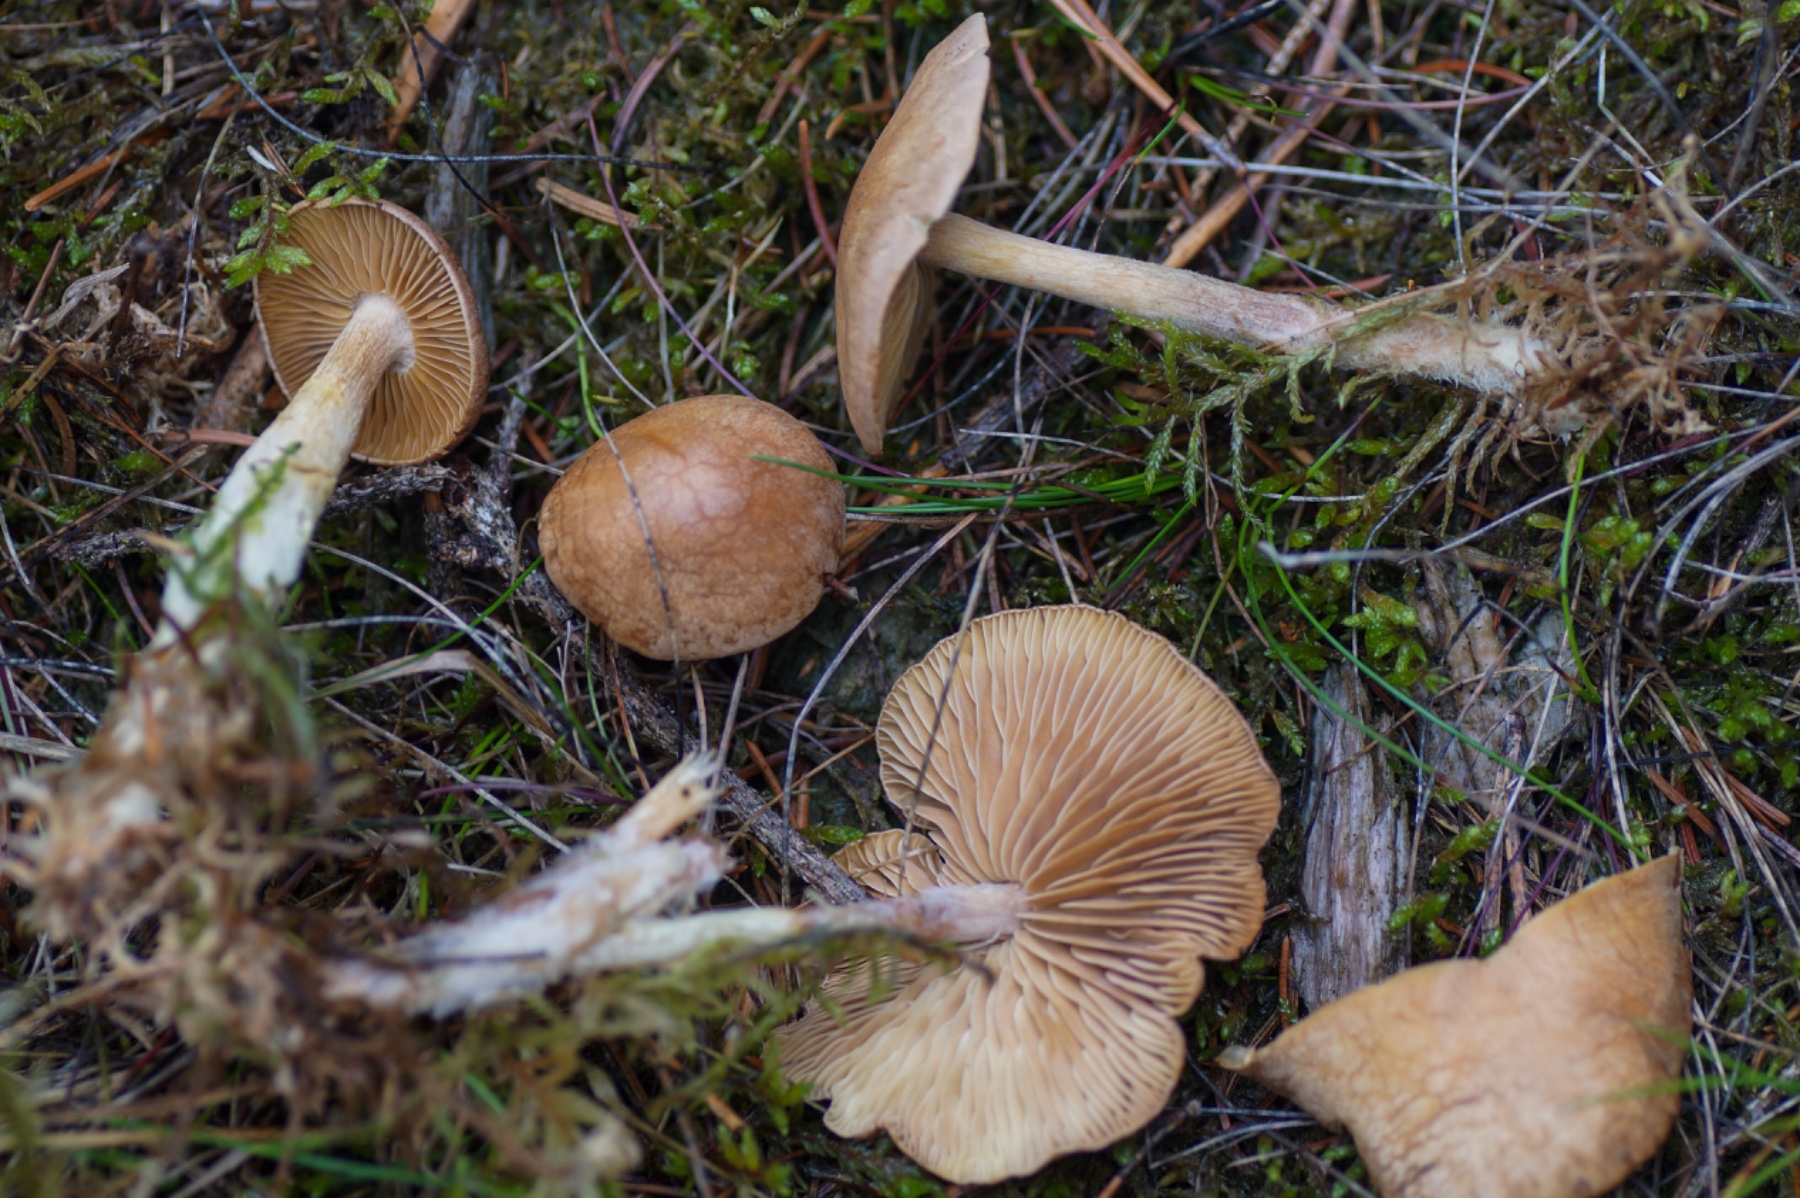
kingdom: Fungi
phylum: Basidiomycota
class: Agaricomycetes
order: Agaricales
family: Omphalotaceae
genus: Collybiopsis
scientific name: Collybiopsis peronata
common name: bestøvlet fladhat
